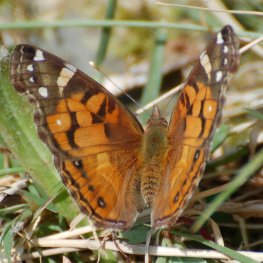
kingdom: Animalia
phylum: Arthropoda
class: Insecta
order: Lepidoptera
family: Nymphalidae
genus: Vanessa
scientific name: Vanessa virginiensis
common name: American Lady
